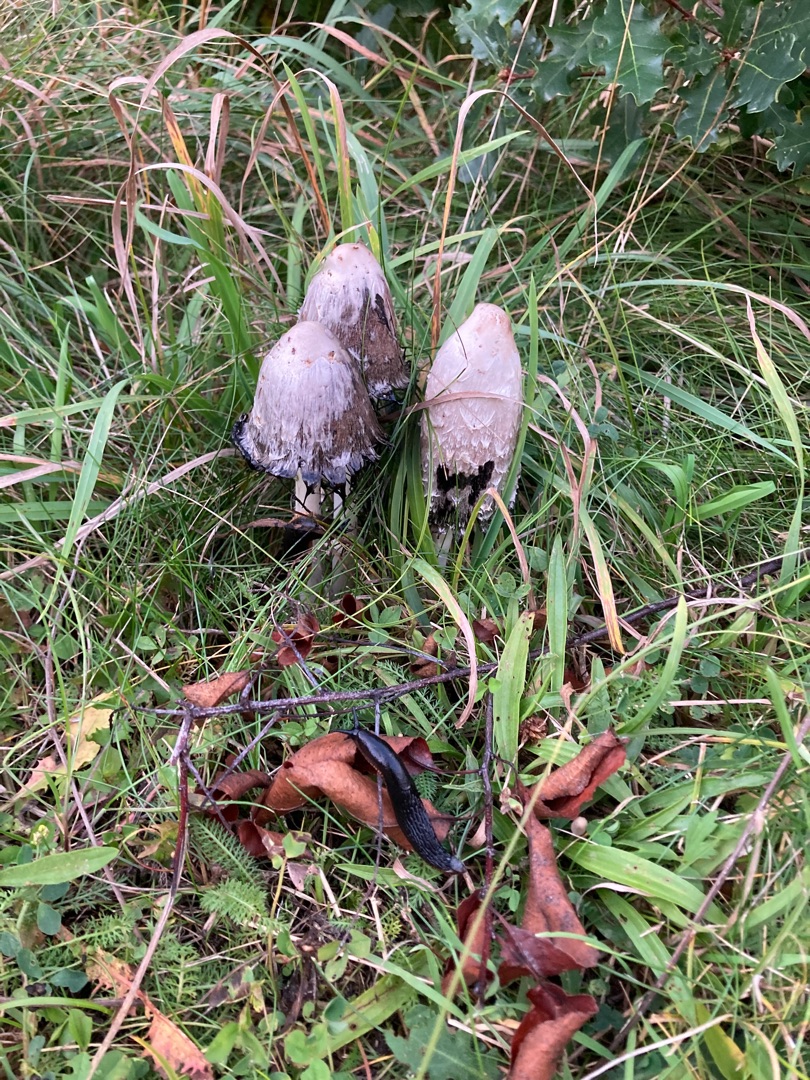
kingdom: Fungi
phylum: Basidiomycota
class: Agaricomycetes
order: Agaricales
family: Agaricaceae
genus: Coprinus
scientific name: Coprinus comatus
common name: Stor parykhat
